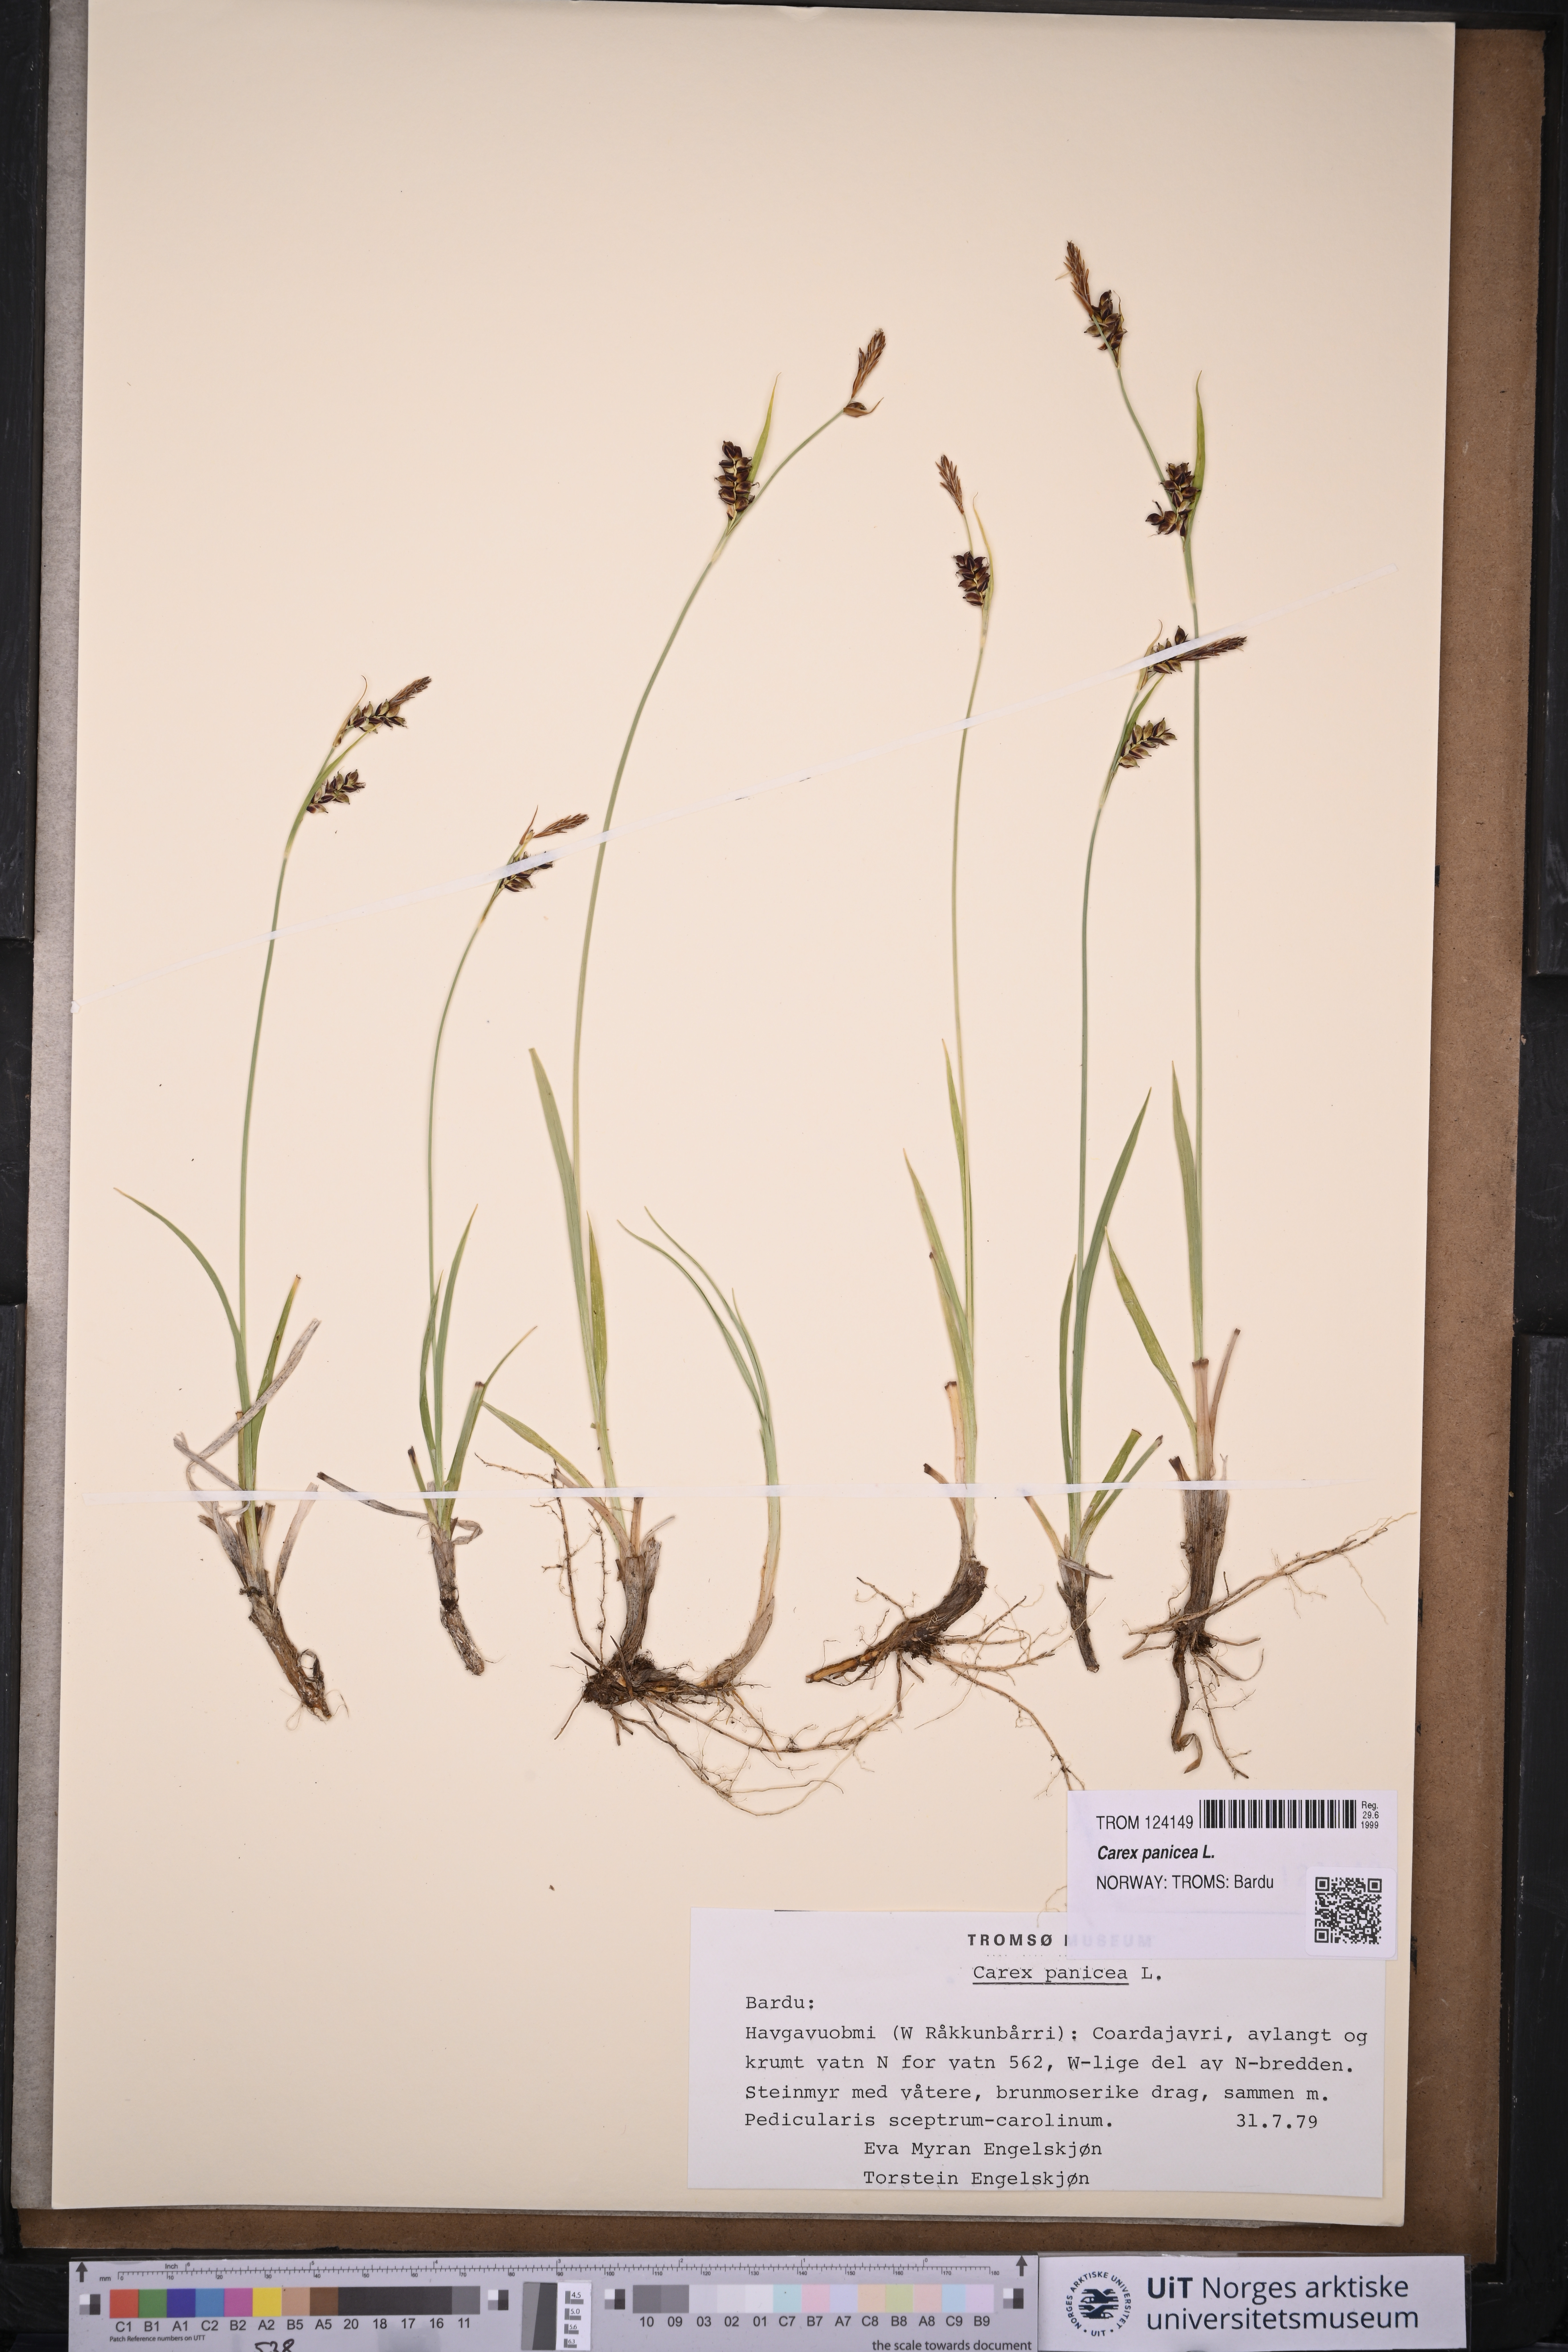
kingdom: Plantae
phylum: Tracheophyta
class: Liliopsida
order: Poales
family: Cyperaceae
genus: Carex
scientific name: Carex panicea
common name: Carnation sedge
